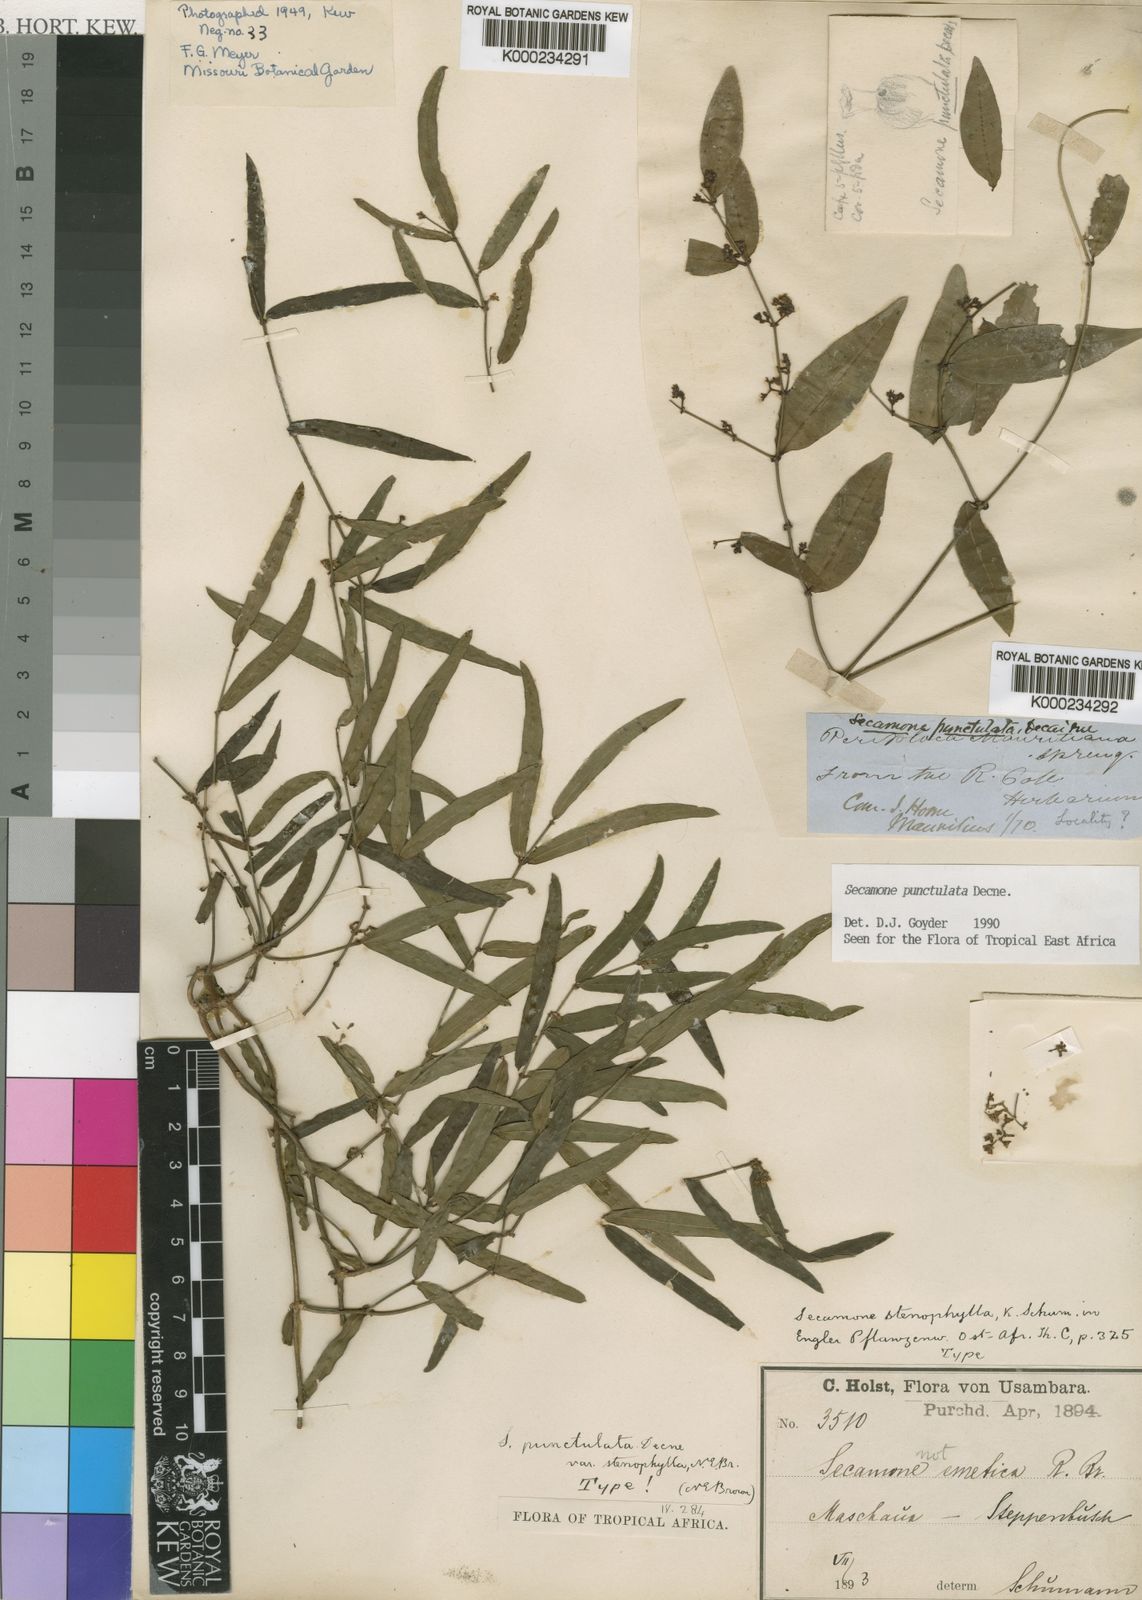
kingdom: Plantae
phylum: Tracheophyta
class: Magnoliopsida
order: Gentianales
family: Apocynaceae
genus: Secamone
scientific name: Secamone punctulata
